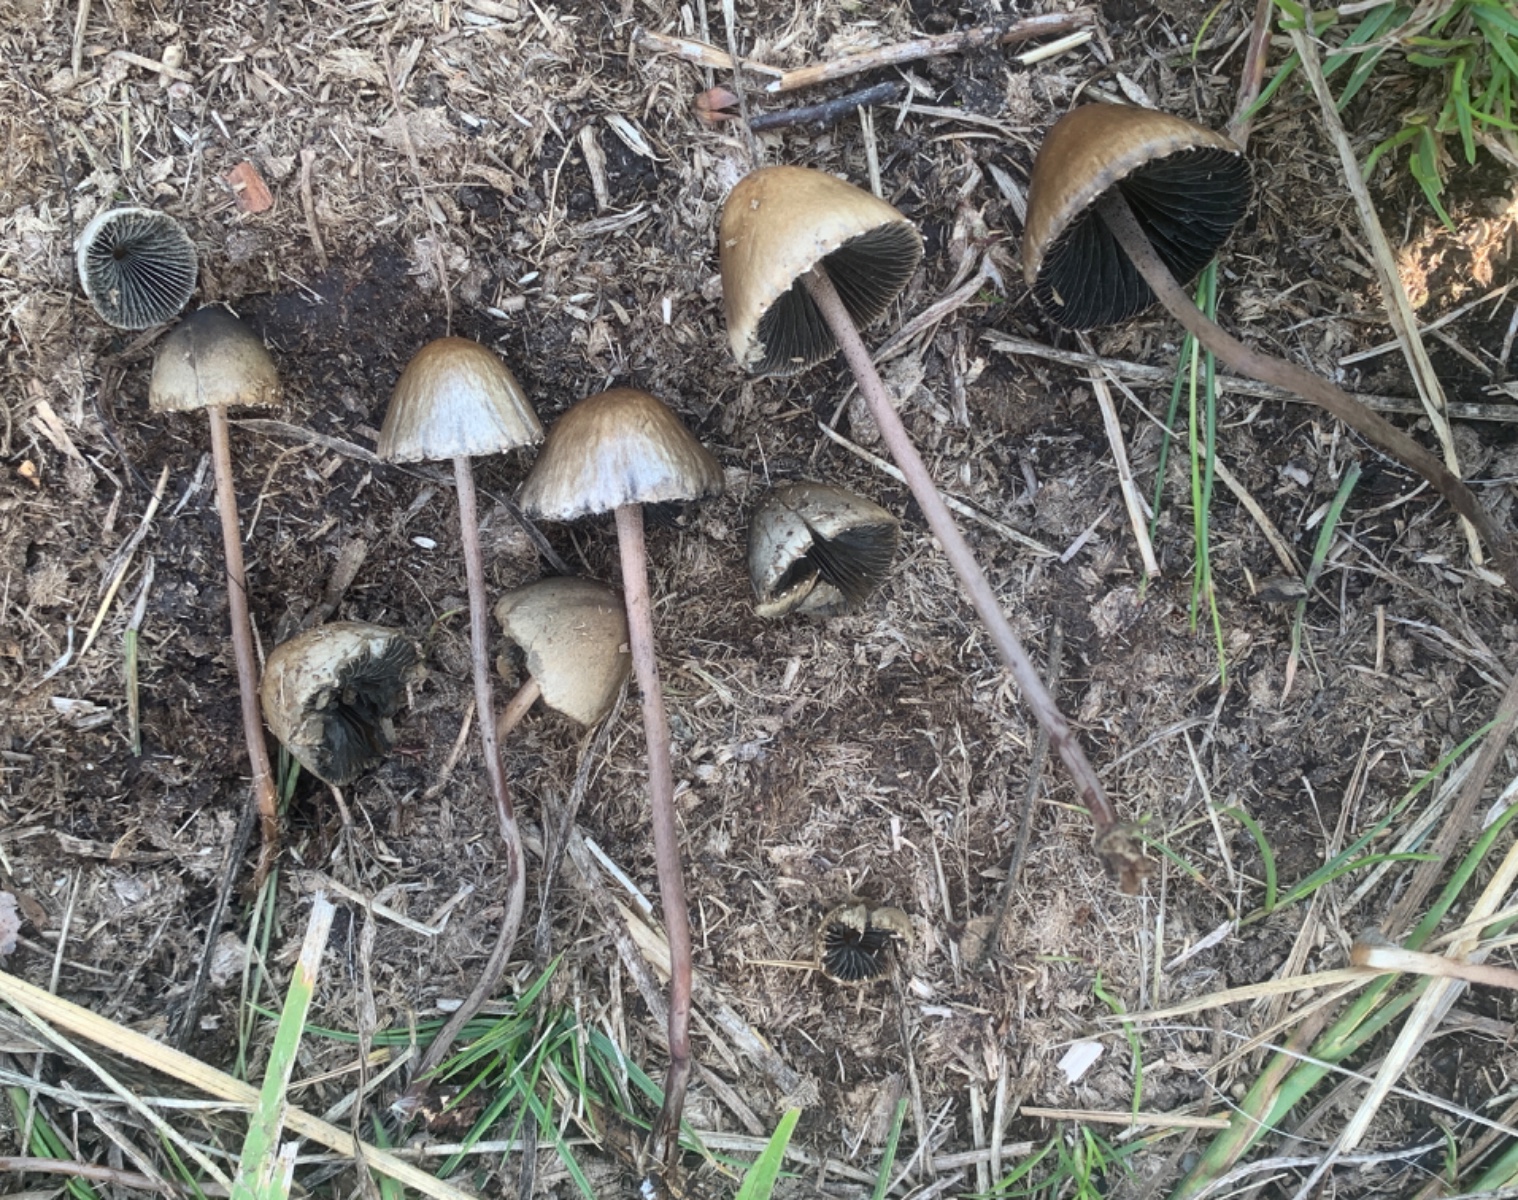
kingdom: Fungi
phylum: Basidiomycota
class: Agaricomycetes
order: Agaricales
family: Bolbitiaceae
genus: Panaeolus
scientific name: Panaeolus papilionaceus
